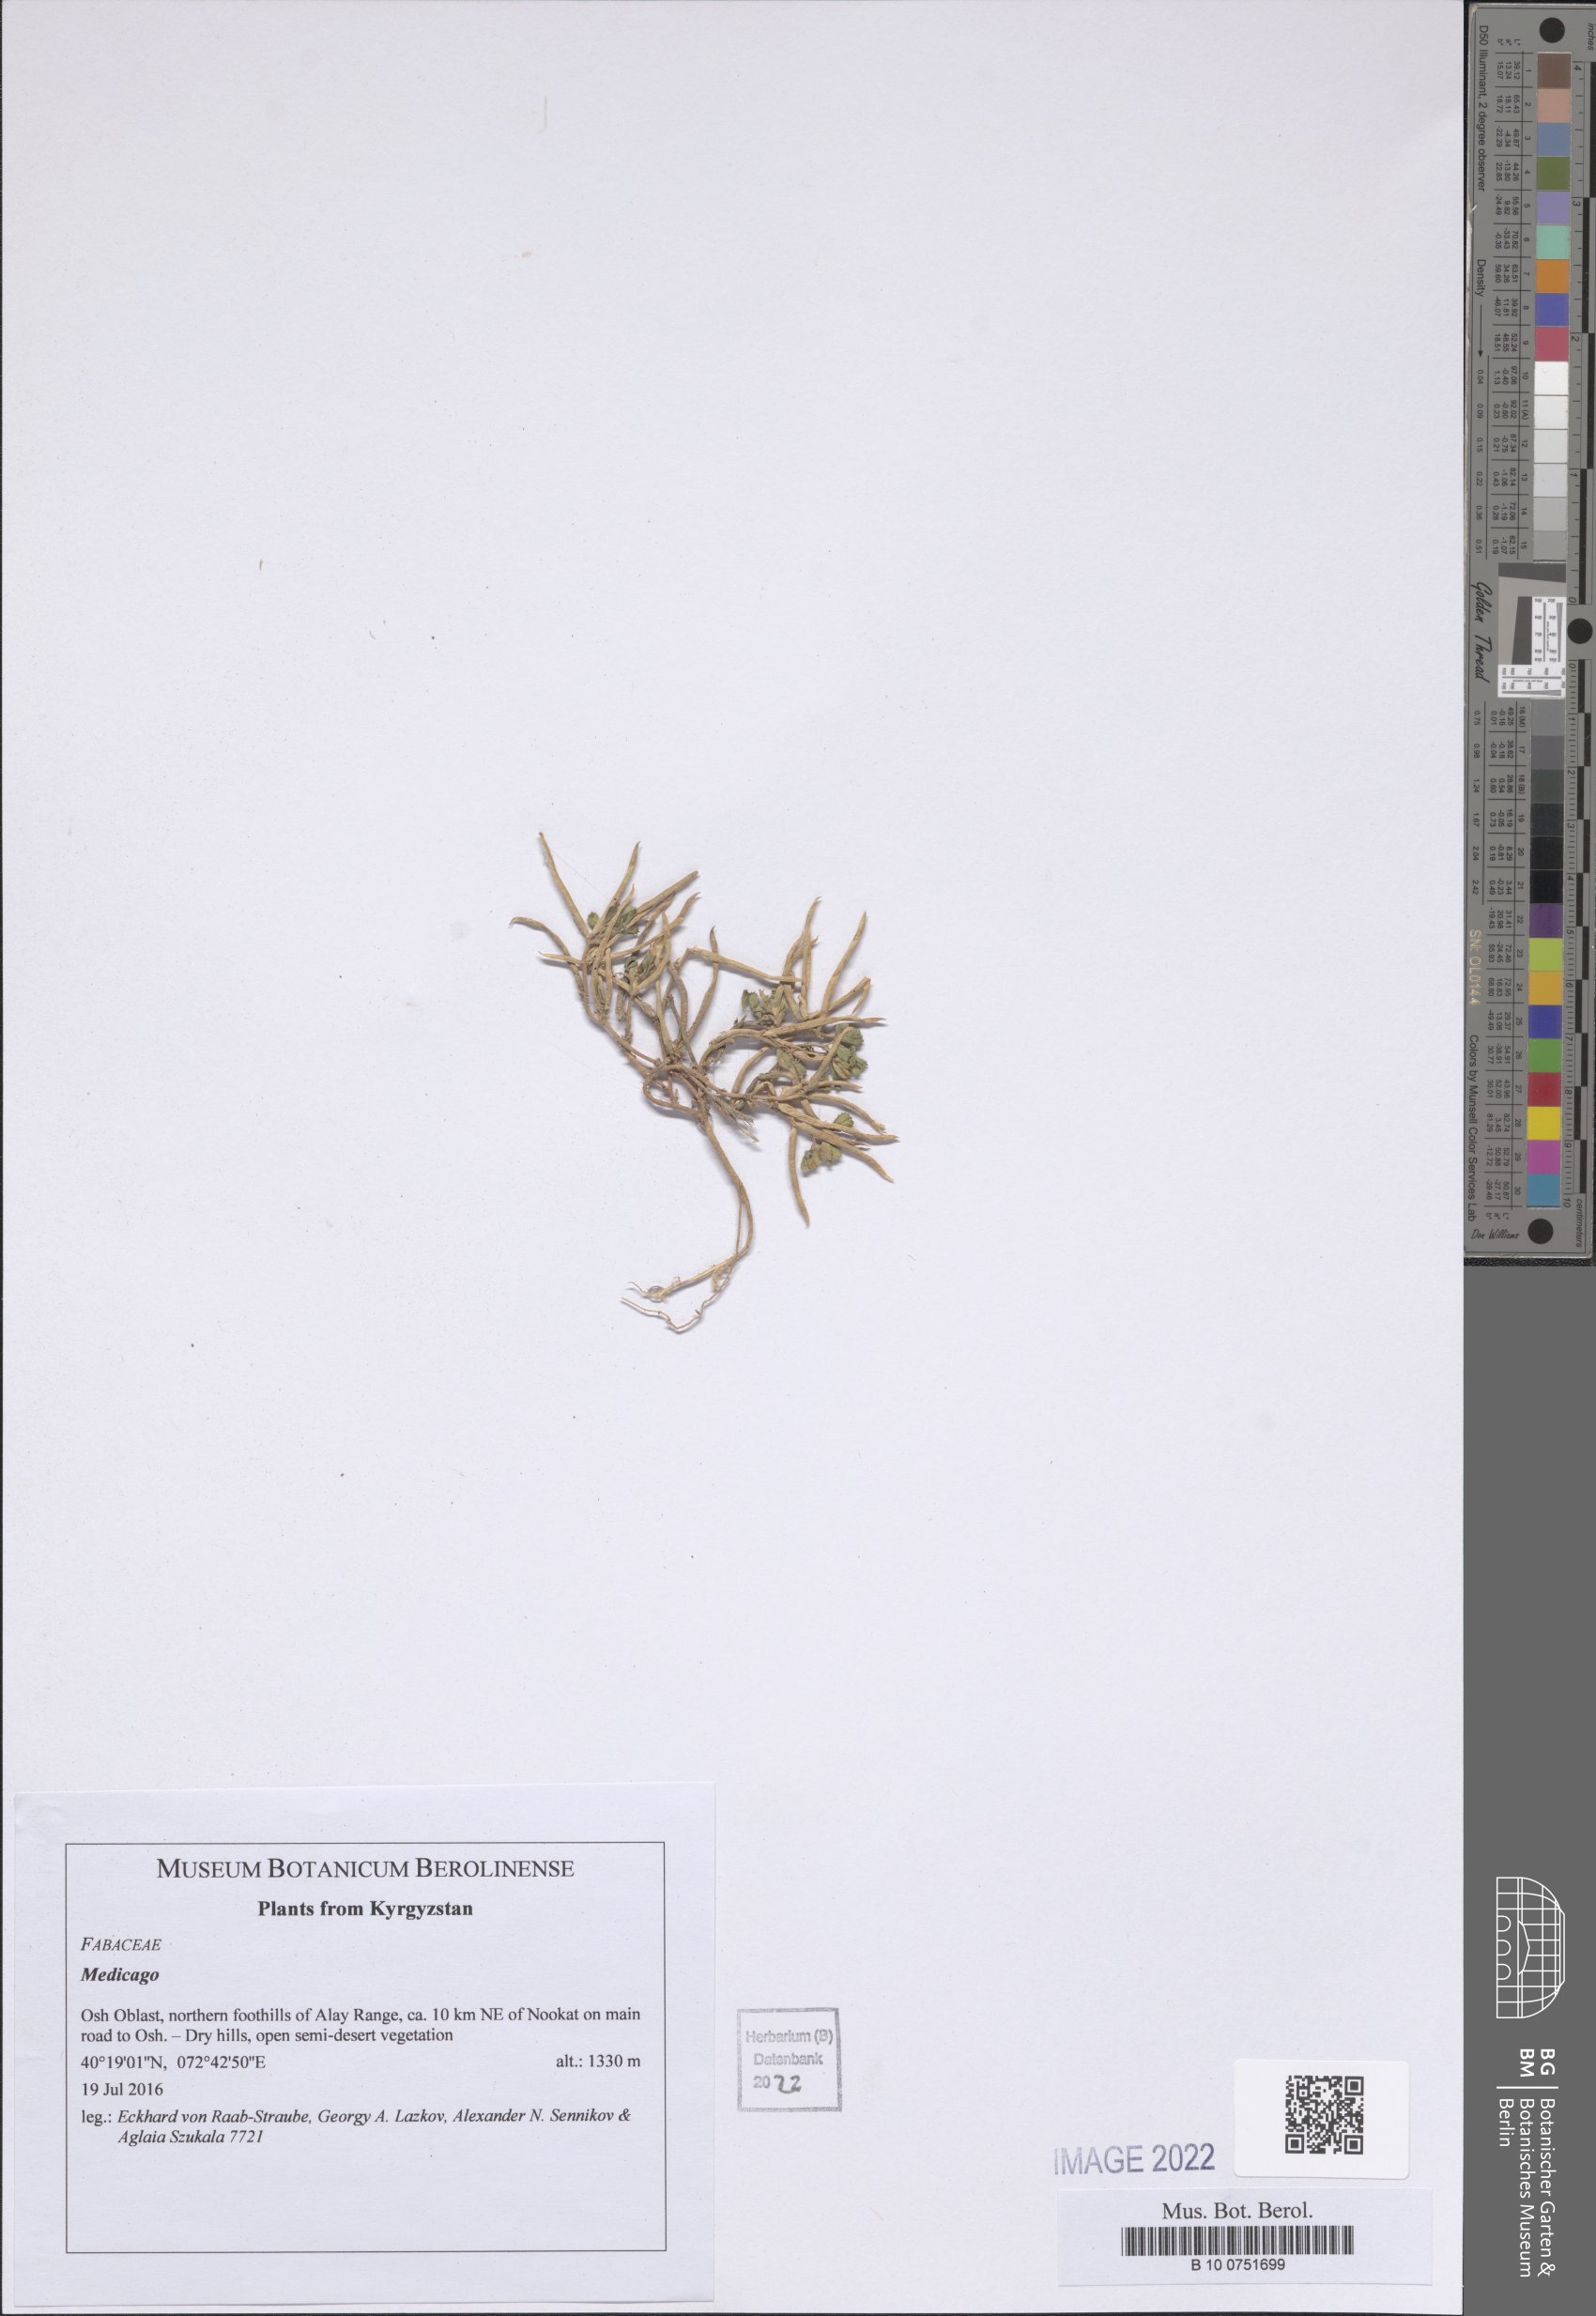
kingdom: Plantae
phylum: Tracheophyta
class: Magnoliopsida
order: Fabales
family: Fabaceae
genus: Medicago
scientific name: Medicago
